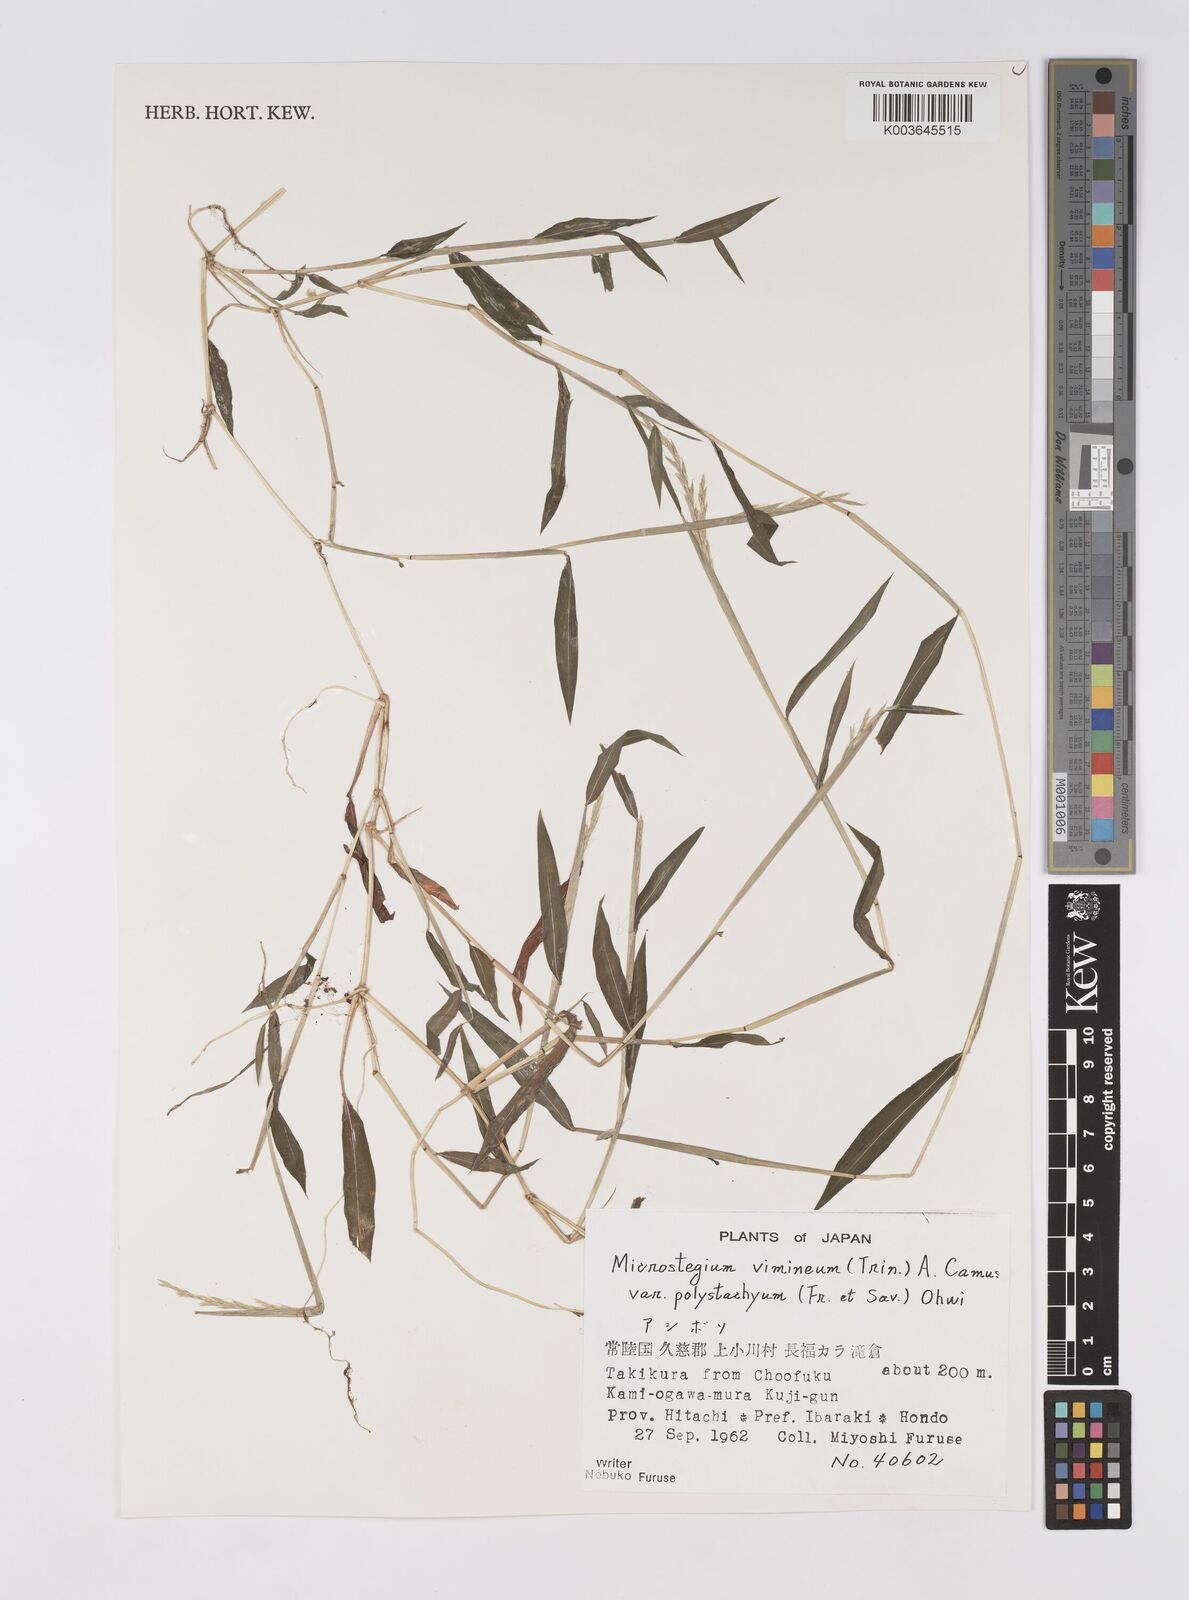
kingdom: Plantae
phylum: Tracheophyta
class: Liliopsida
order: Poales
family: Poaceae
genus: Microstegium
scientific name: Microstegium vimineum
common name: Japanese stiltgrass
